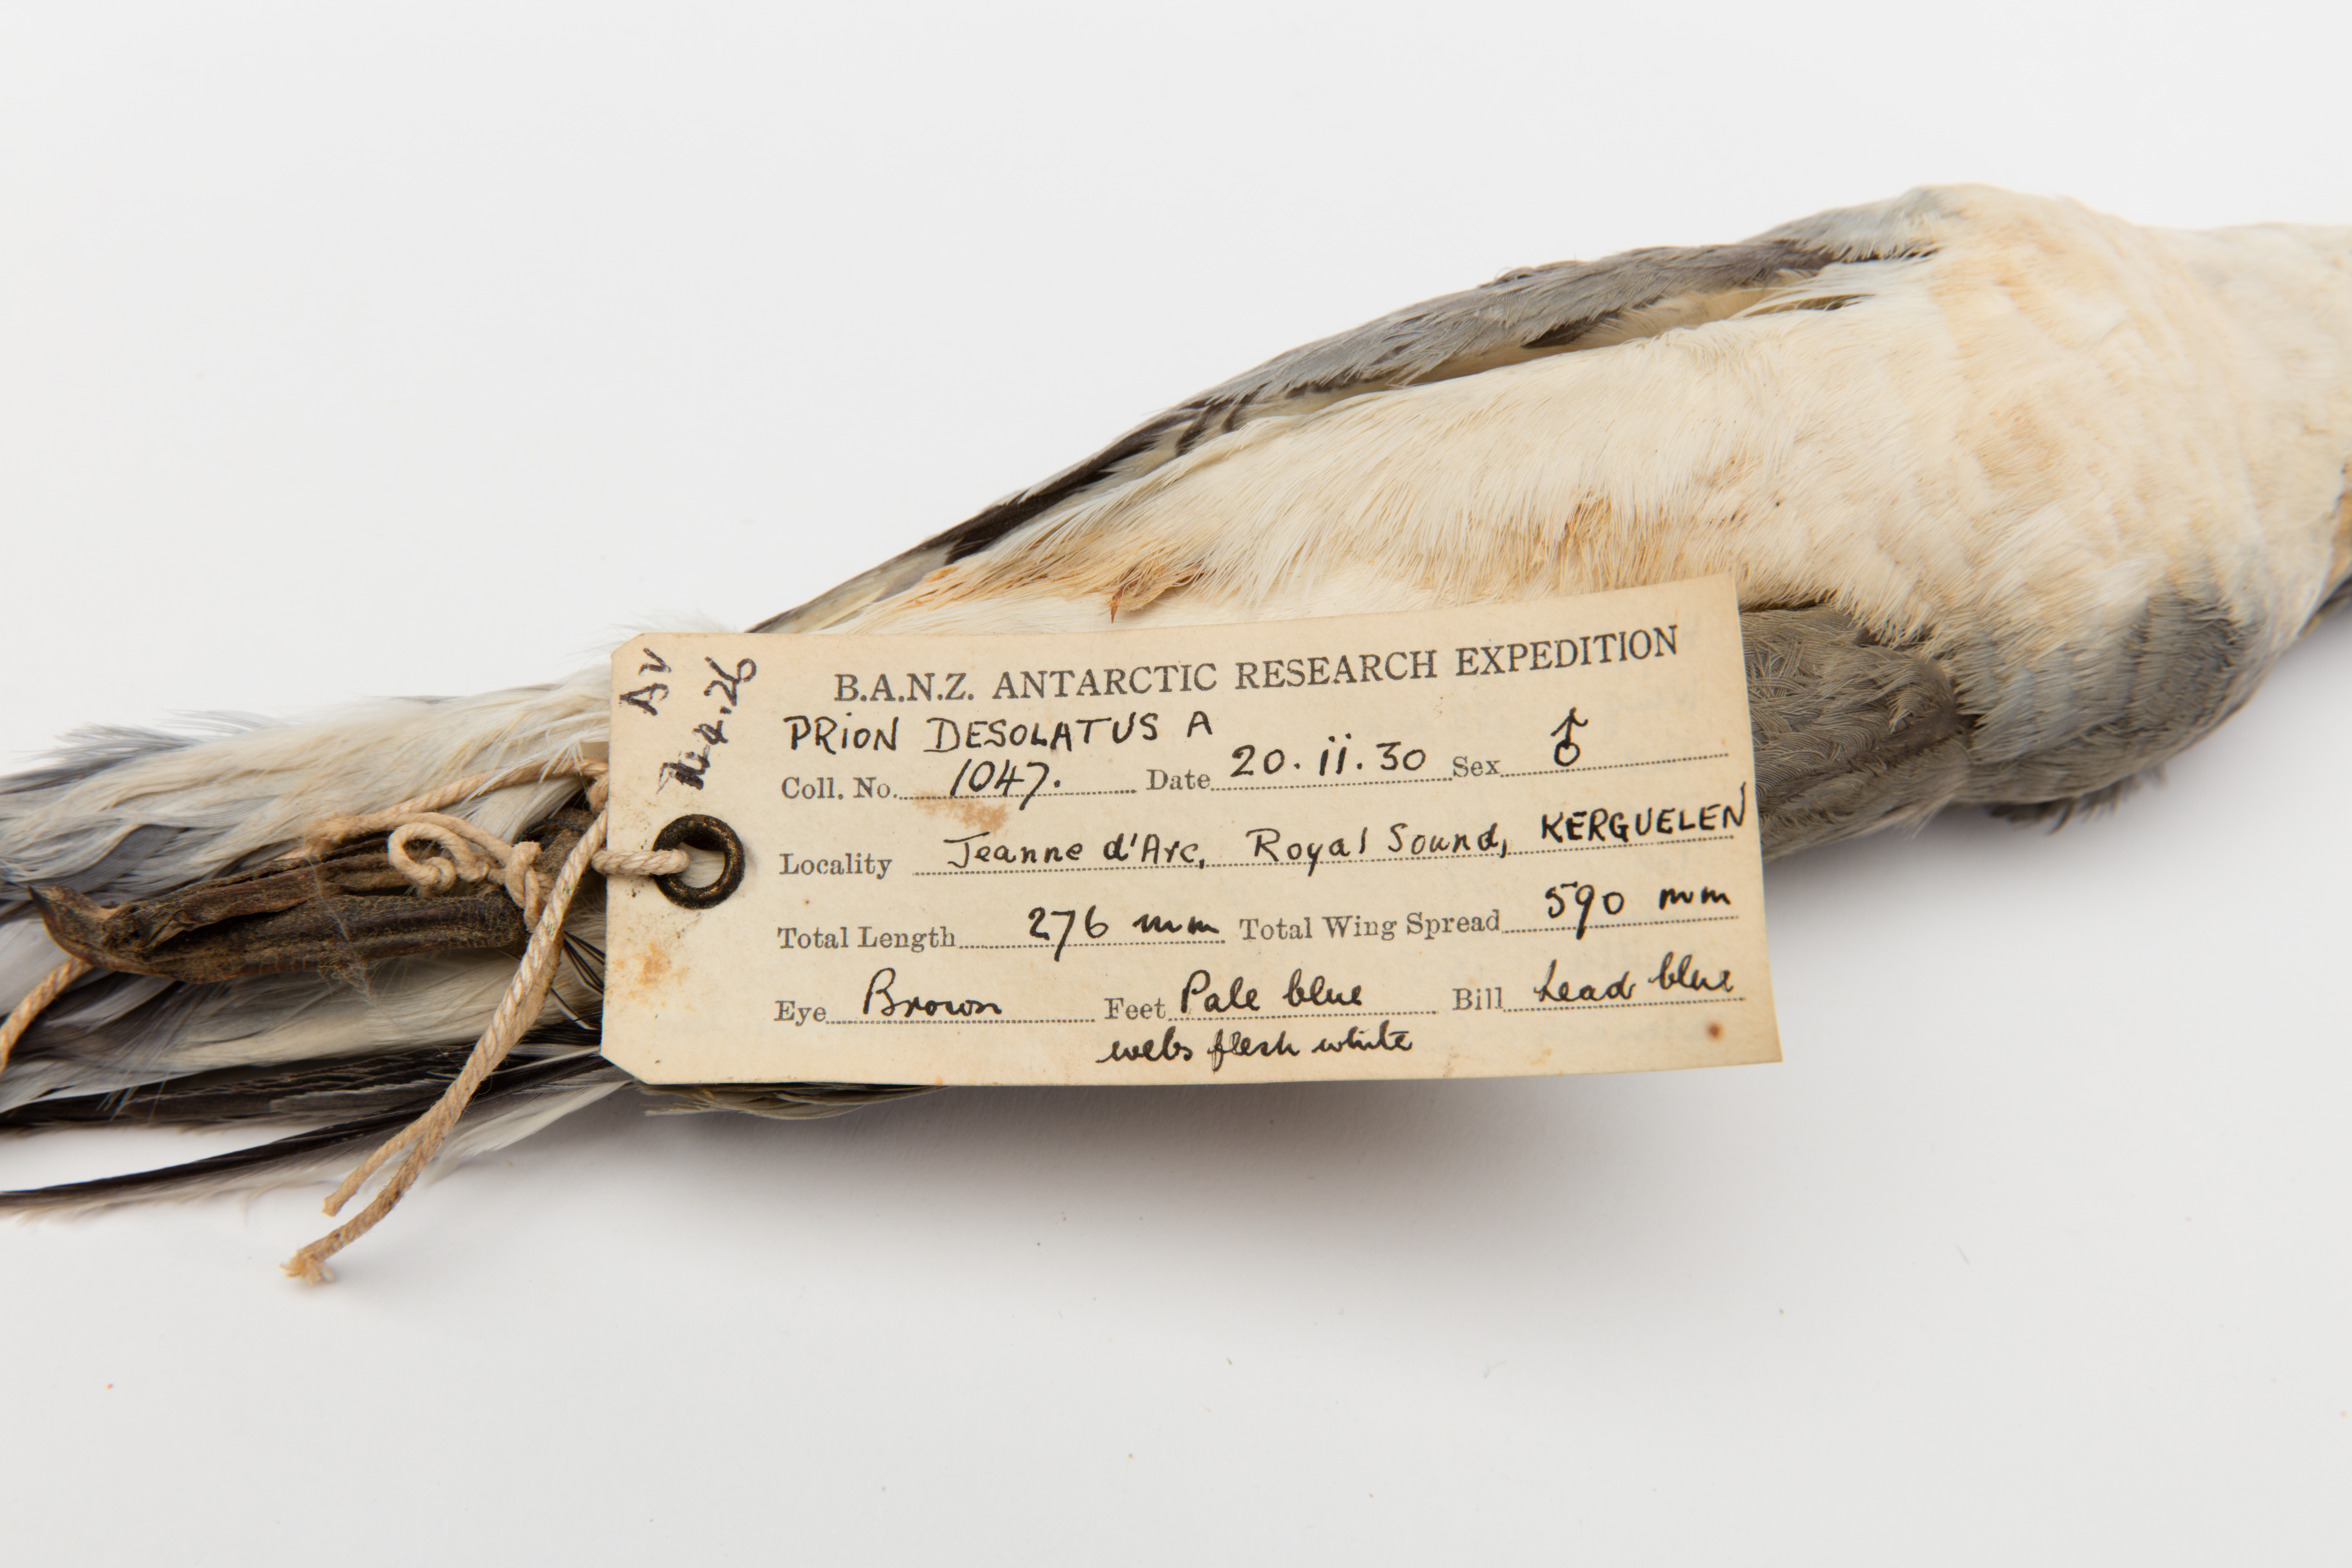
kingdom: Animalia
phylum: Chordata
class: Aves
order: Procellariiformes
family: Procellariidae
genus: Pachyptila
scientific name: Pachyptila desolata
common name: Antarctic prion
